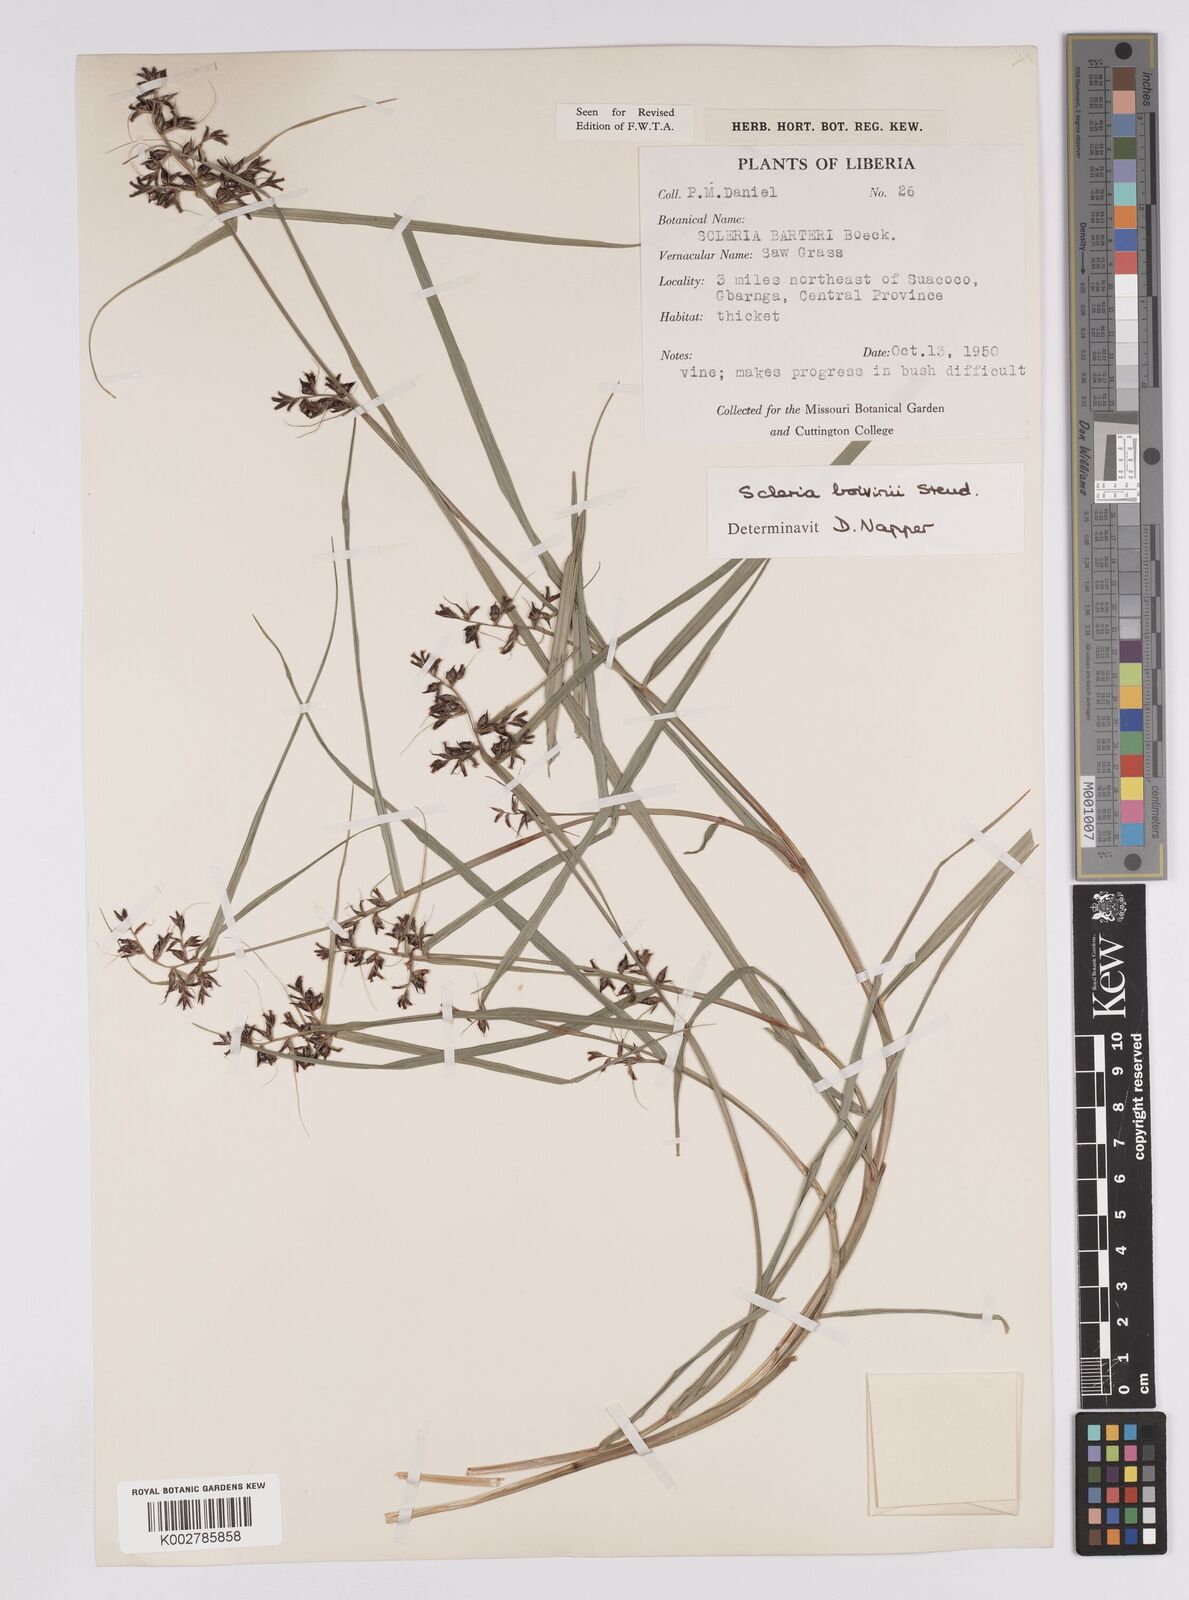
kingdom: Plantae
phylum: Tracheophyta
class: Liliopsida
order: Poales
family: Cyperaceae
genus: Scleria
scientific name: Scleria boivinii
